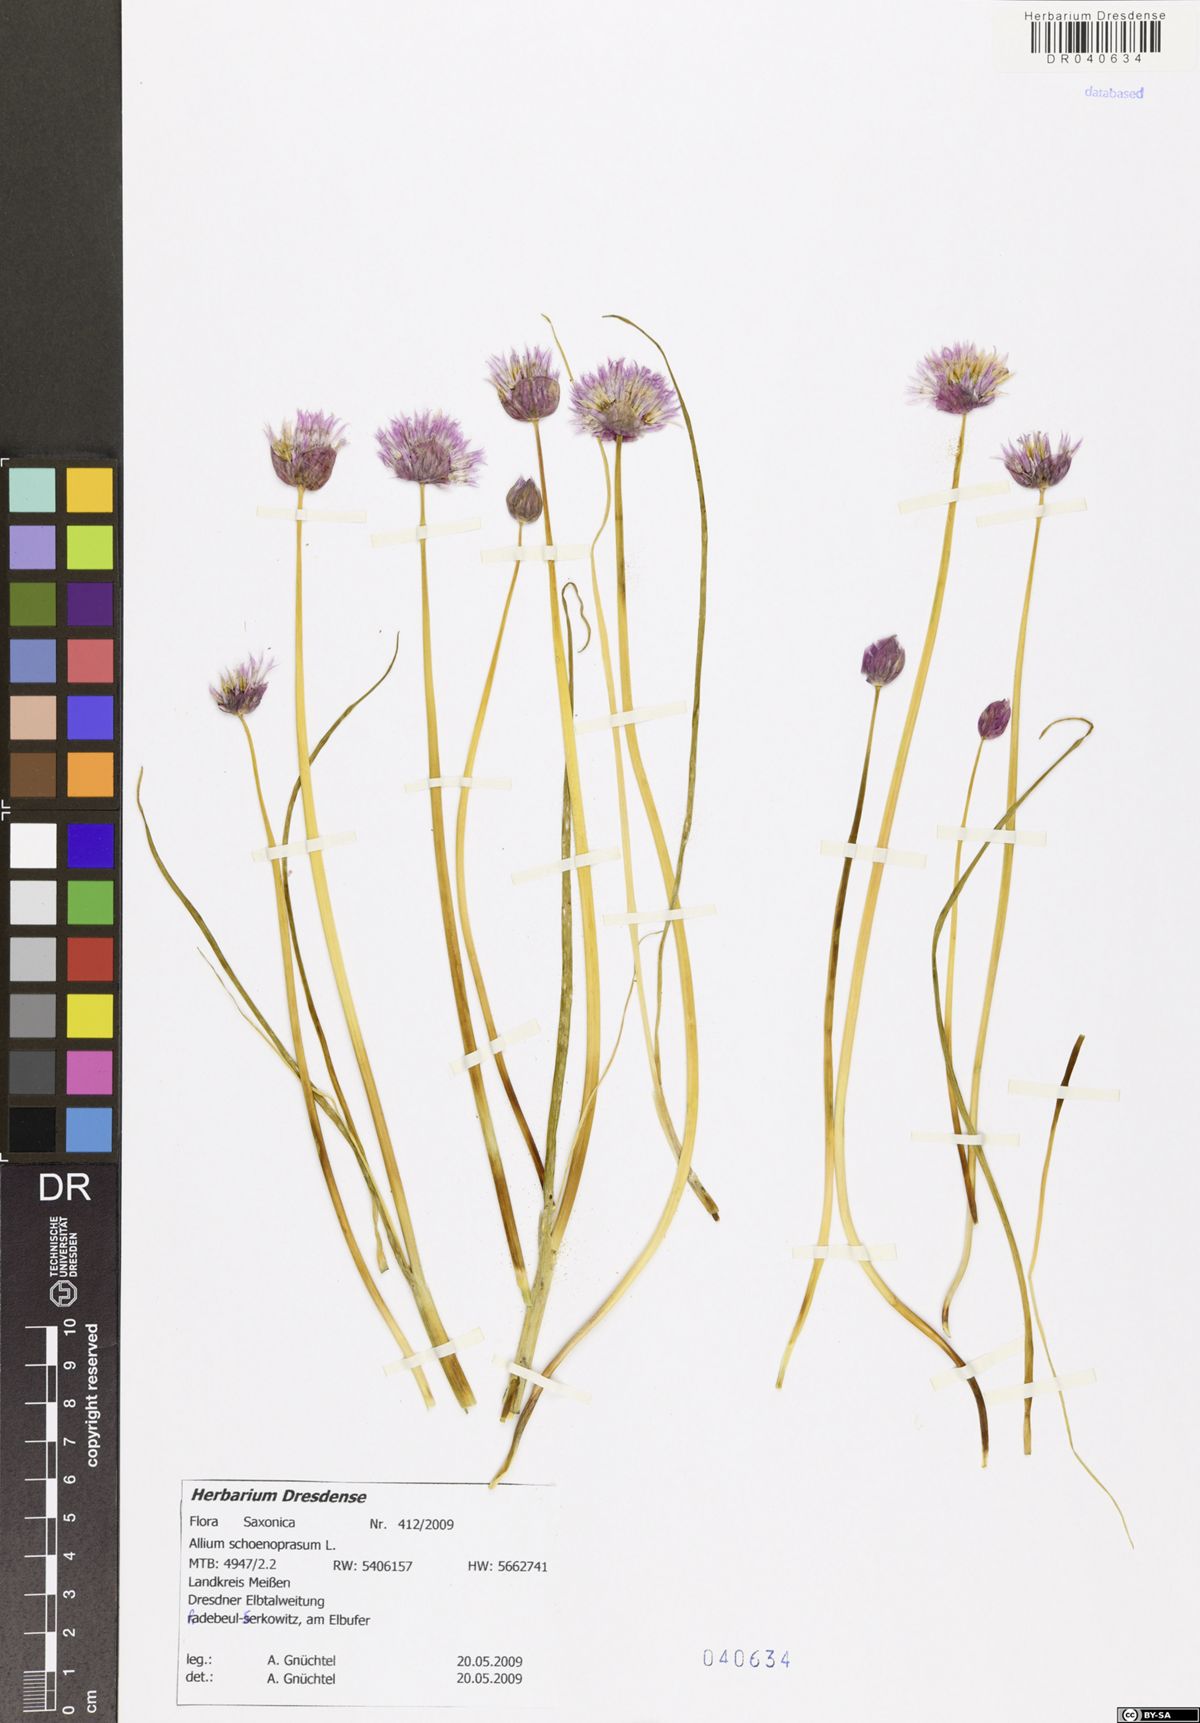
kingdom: Plantae
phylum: Tracheophyta
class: Liliopsida
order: Asparagales
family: Amaryllidaceae
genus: Allium
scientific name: Allium schoenoprasum
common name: Chives
